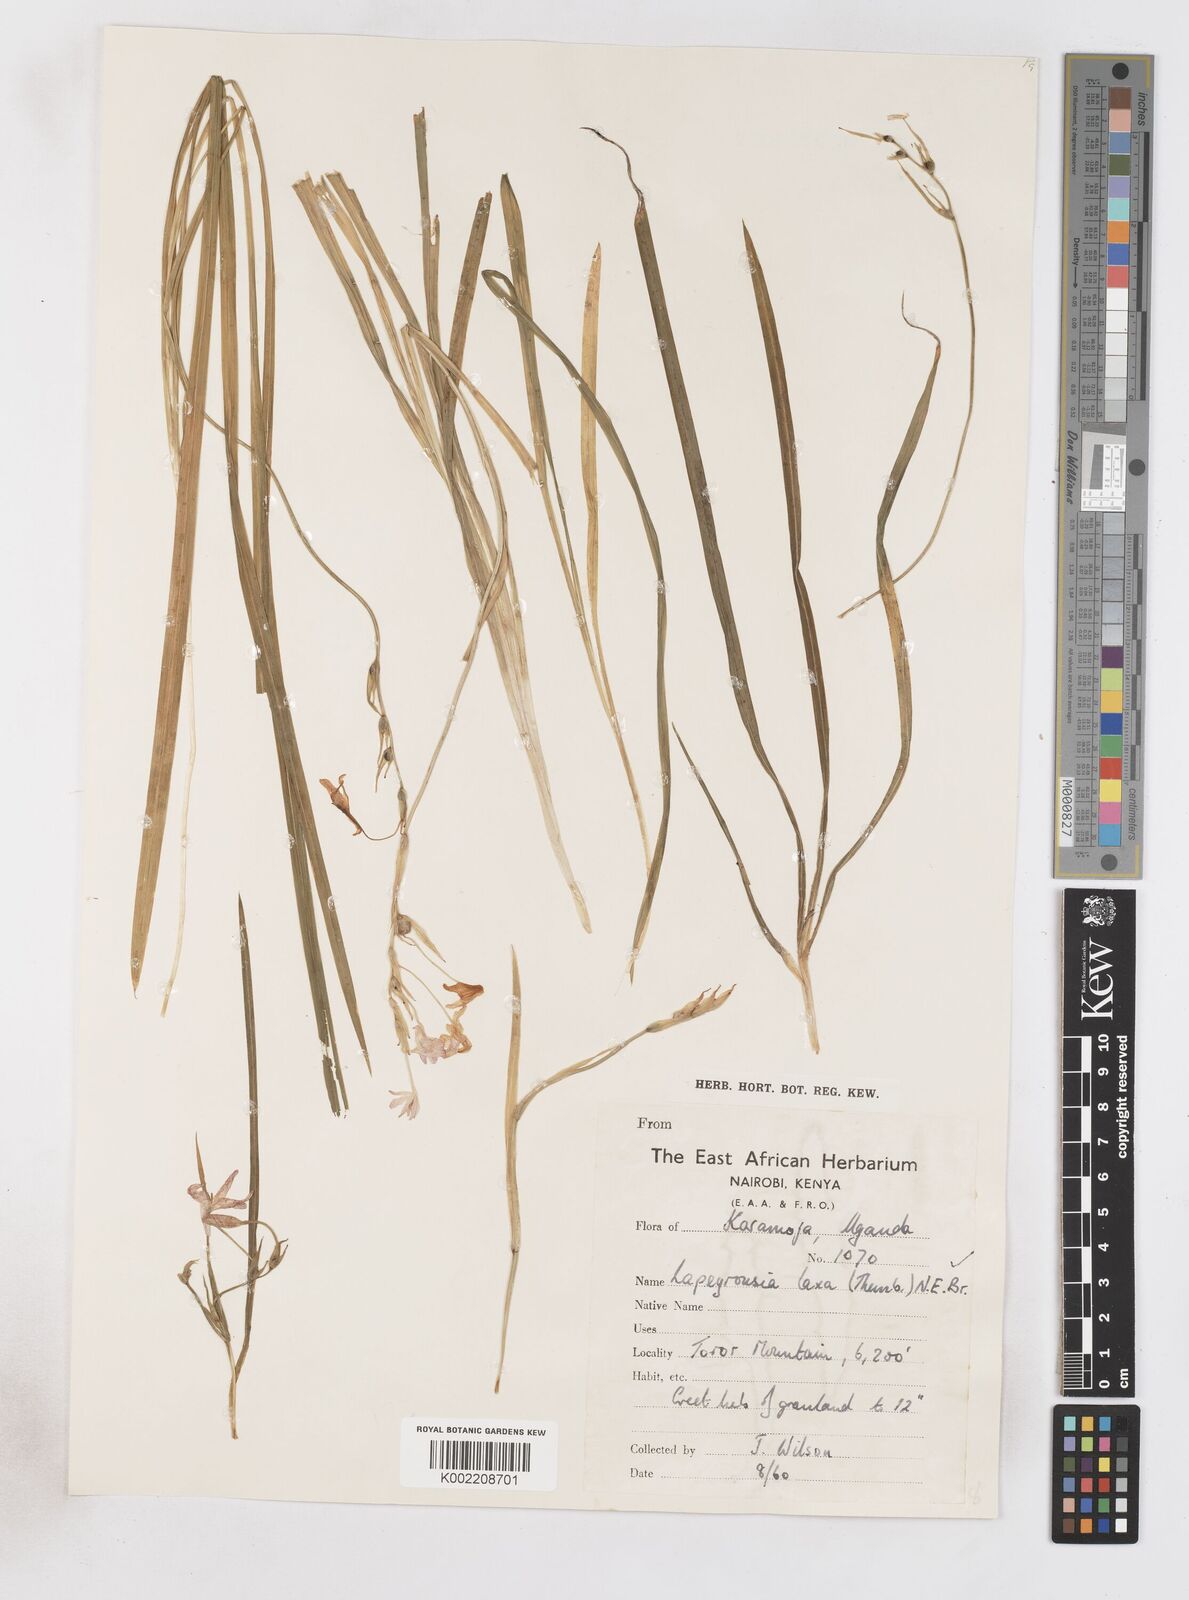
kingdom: Plantae
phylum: Tracheophyta
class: Liliopsida
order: Asparagales
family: Iridaceae
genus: Freesia
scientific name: Freesia laxa
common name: False freesia
